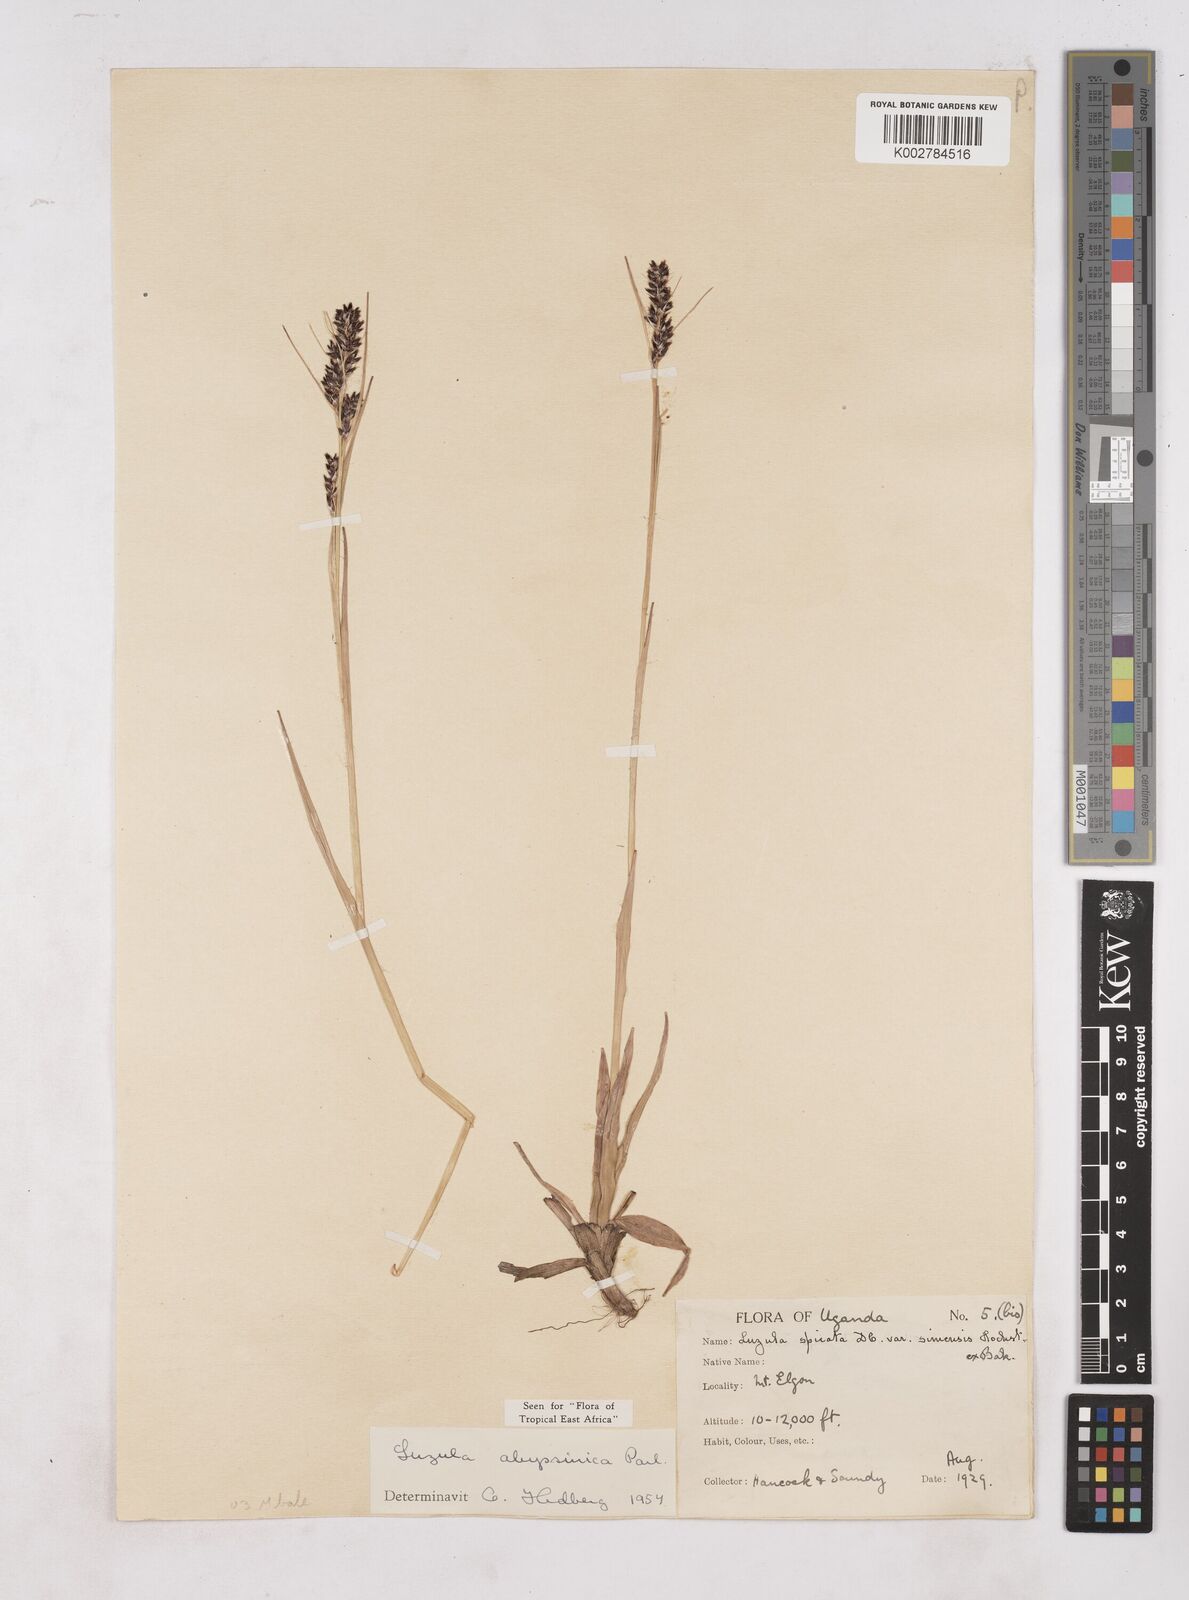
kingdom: Plantae
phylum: Tracheophyta
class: Liliopsida
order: Poales
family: Juncaceae
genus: Luzula
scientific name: Luzula abyssinica
